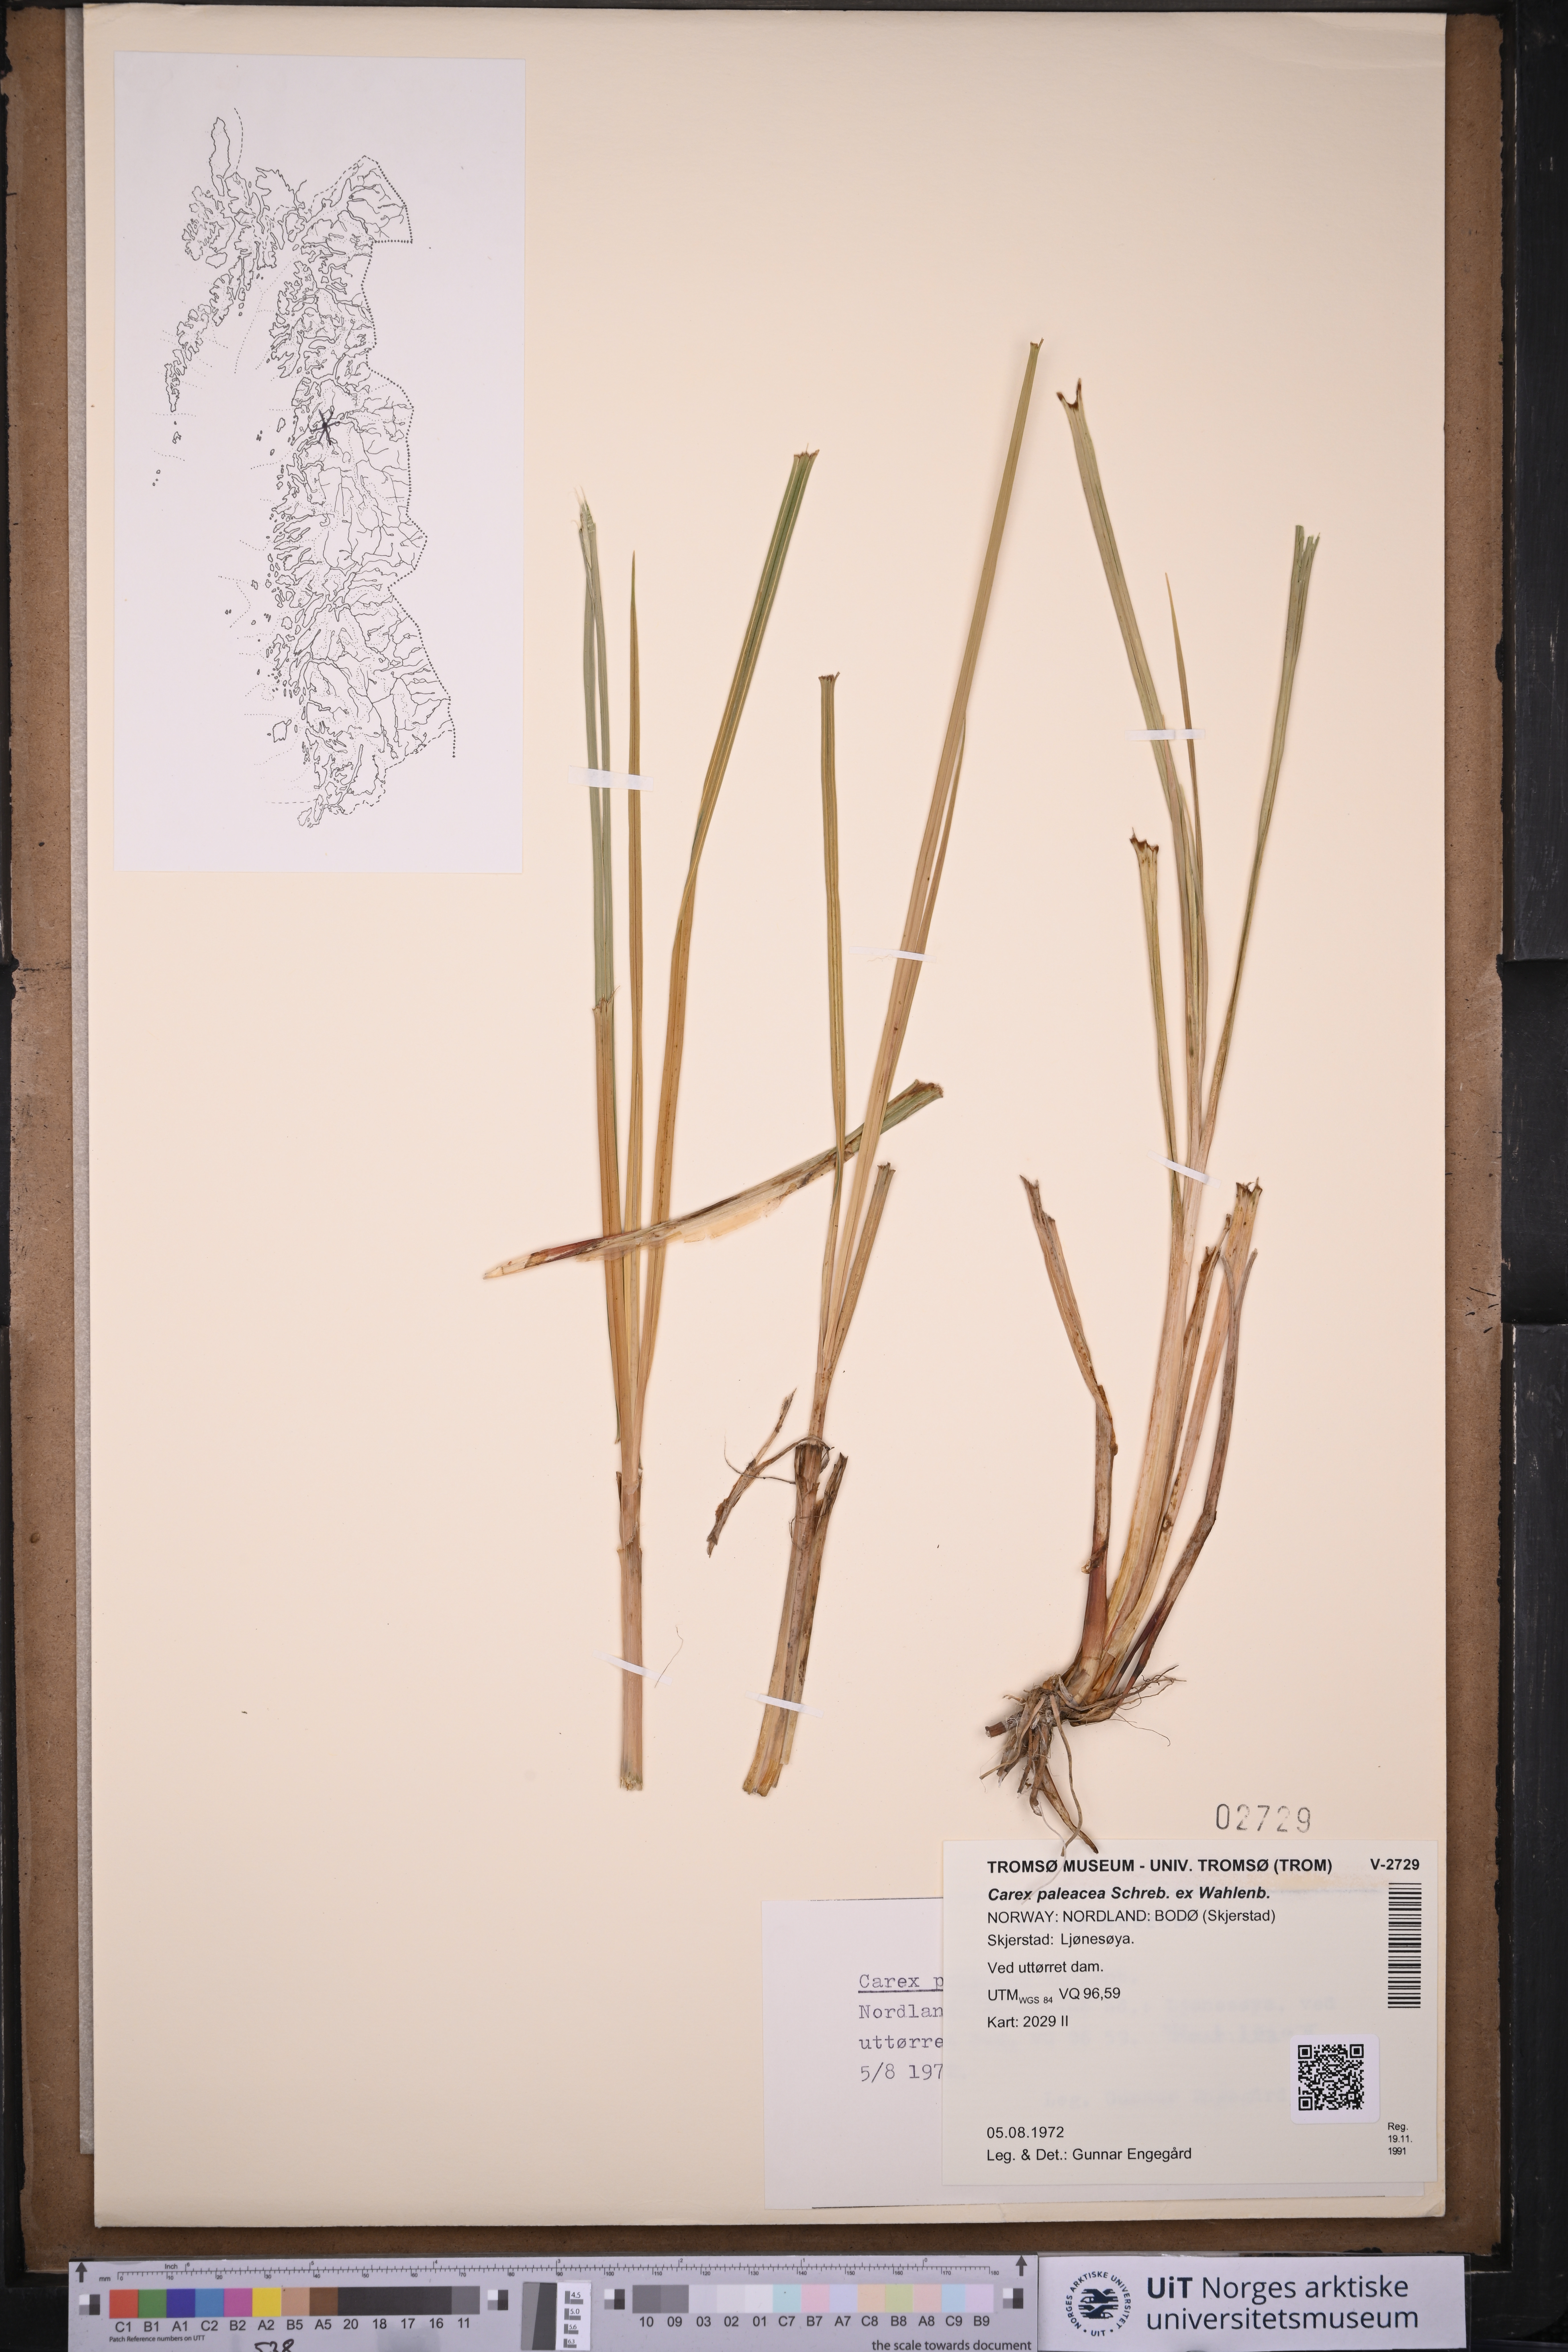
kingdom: Plantae
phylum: Tracheophyta
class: Liliopsida
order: Poales
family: Cyperaceae
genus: Carex
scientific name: Carex paleacea
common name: Chaffy sedge
